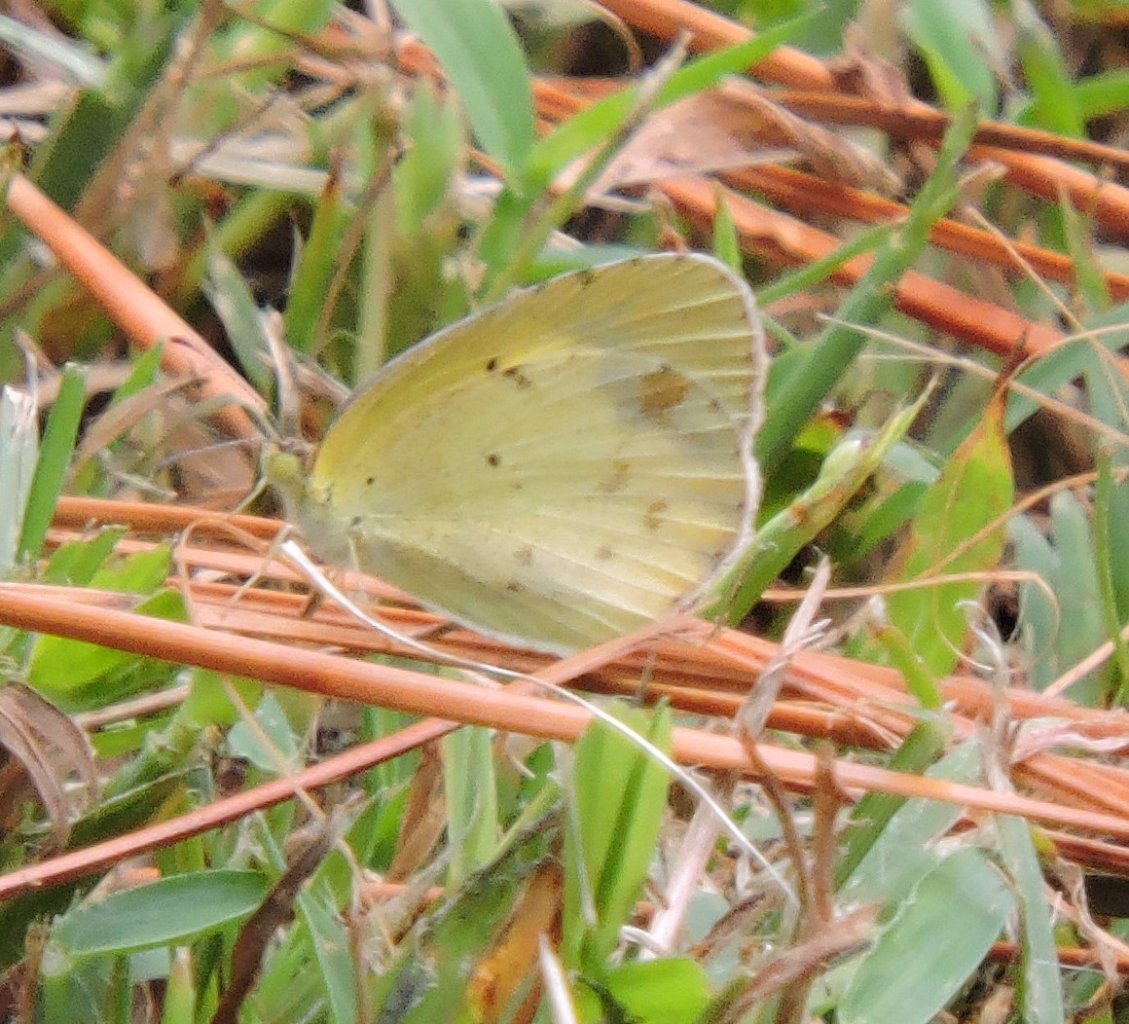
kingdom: Animalia
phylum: Arthropoda
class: Insecta
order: Lepidoptera
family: Pieridae
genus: Pyrisitia
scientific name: Pyrisitia lisa
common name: Little Yellow
